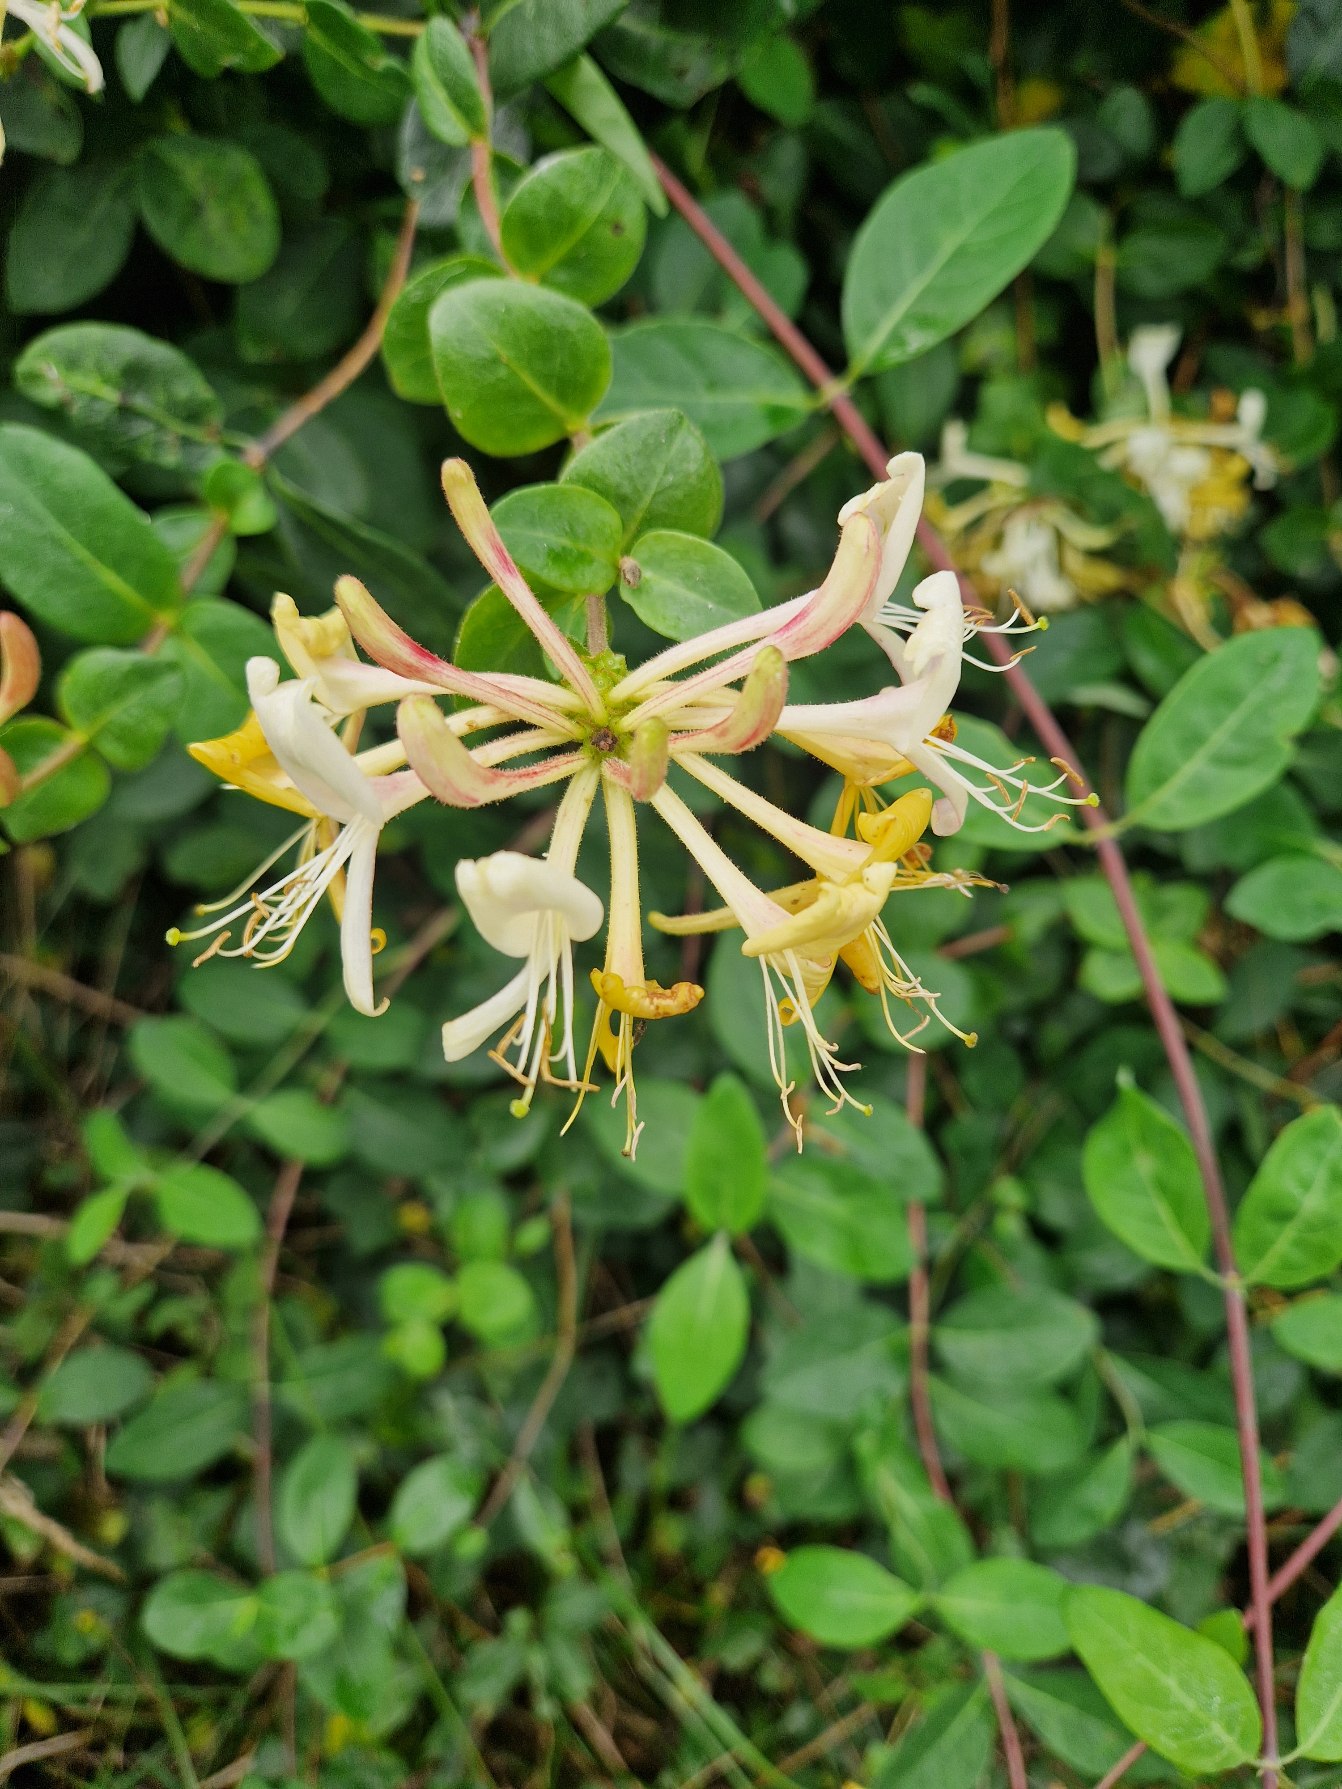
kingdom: Plantae
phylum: Tracheophyta
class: Magnoliopsida
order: Dipsacales
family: Caprifoliaceae
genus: Lonicera
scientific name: Lonicera periclymenum
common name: Almindelig gedeblad
